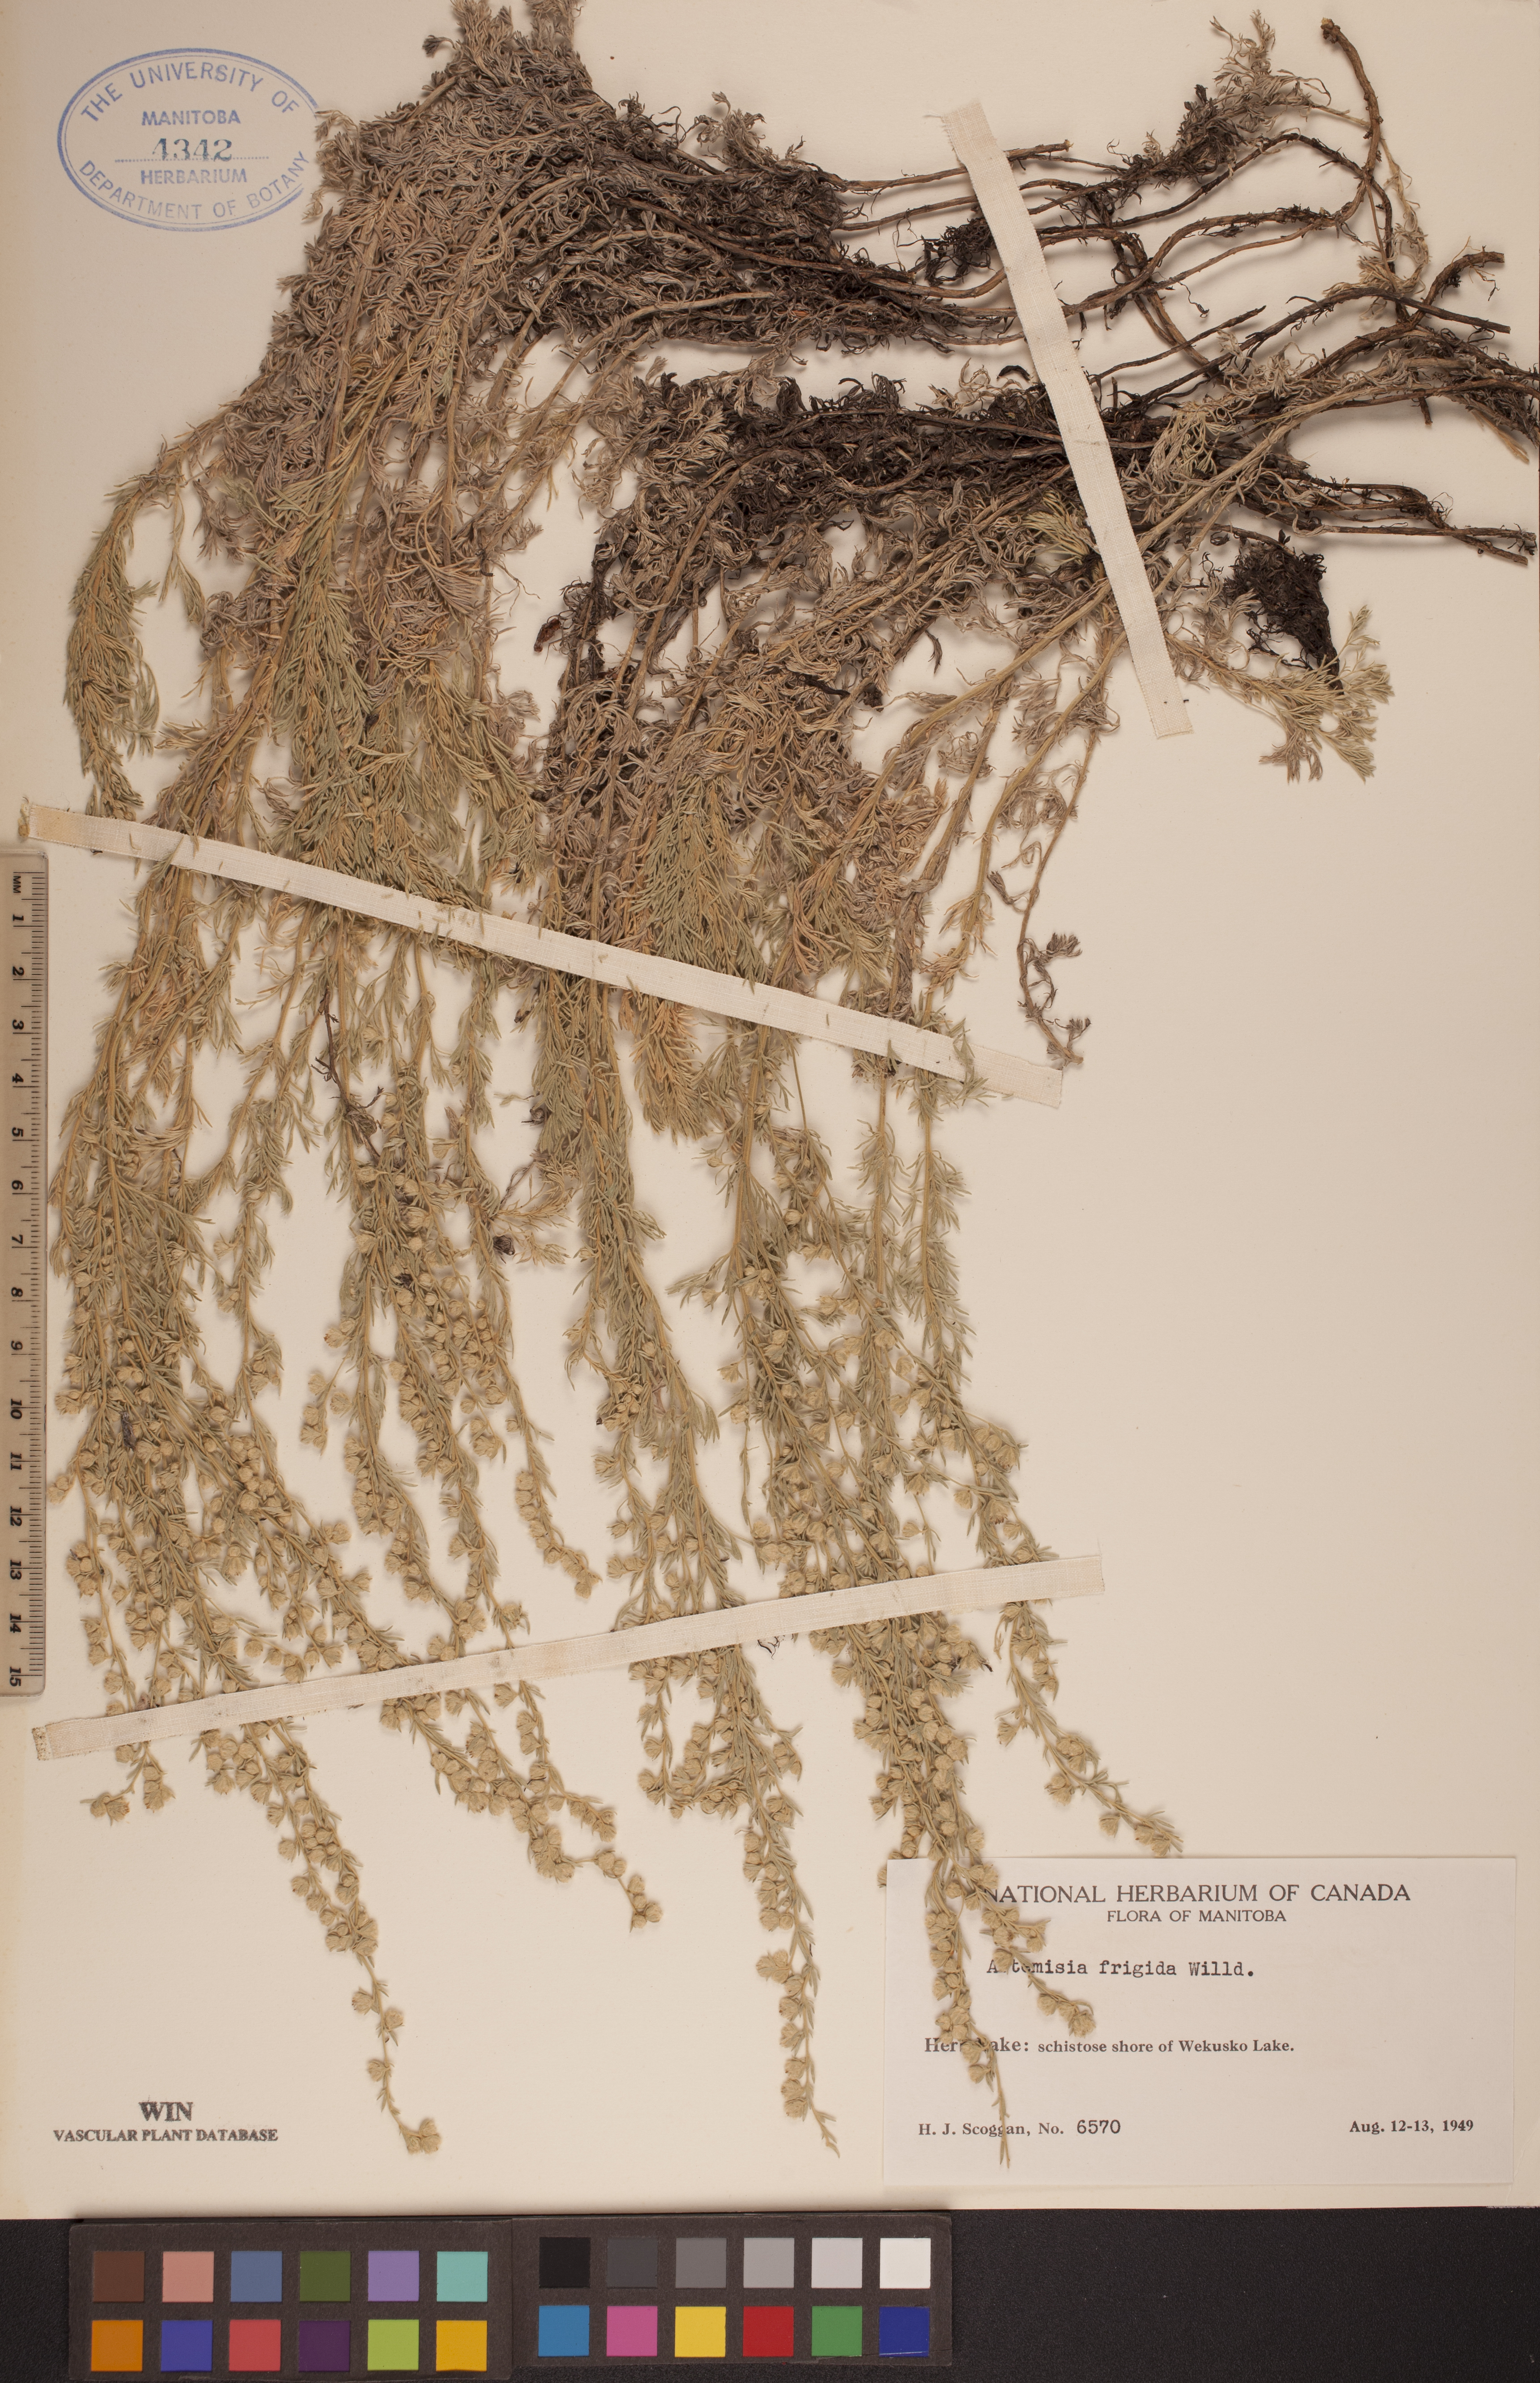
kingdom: Plantae
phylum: Tracheophyta
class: Magnoliopsida
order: Asterales
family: Asteraceae
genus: Artemisia
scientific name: Artemisia frigida
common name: Prairie sagewort
